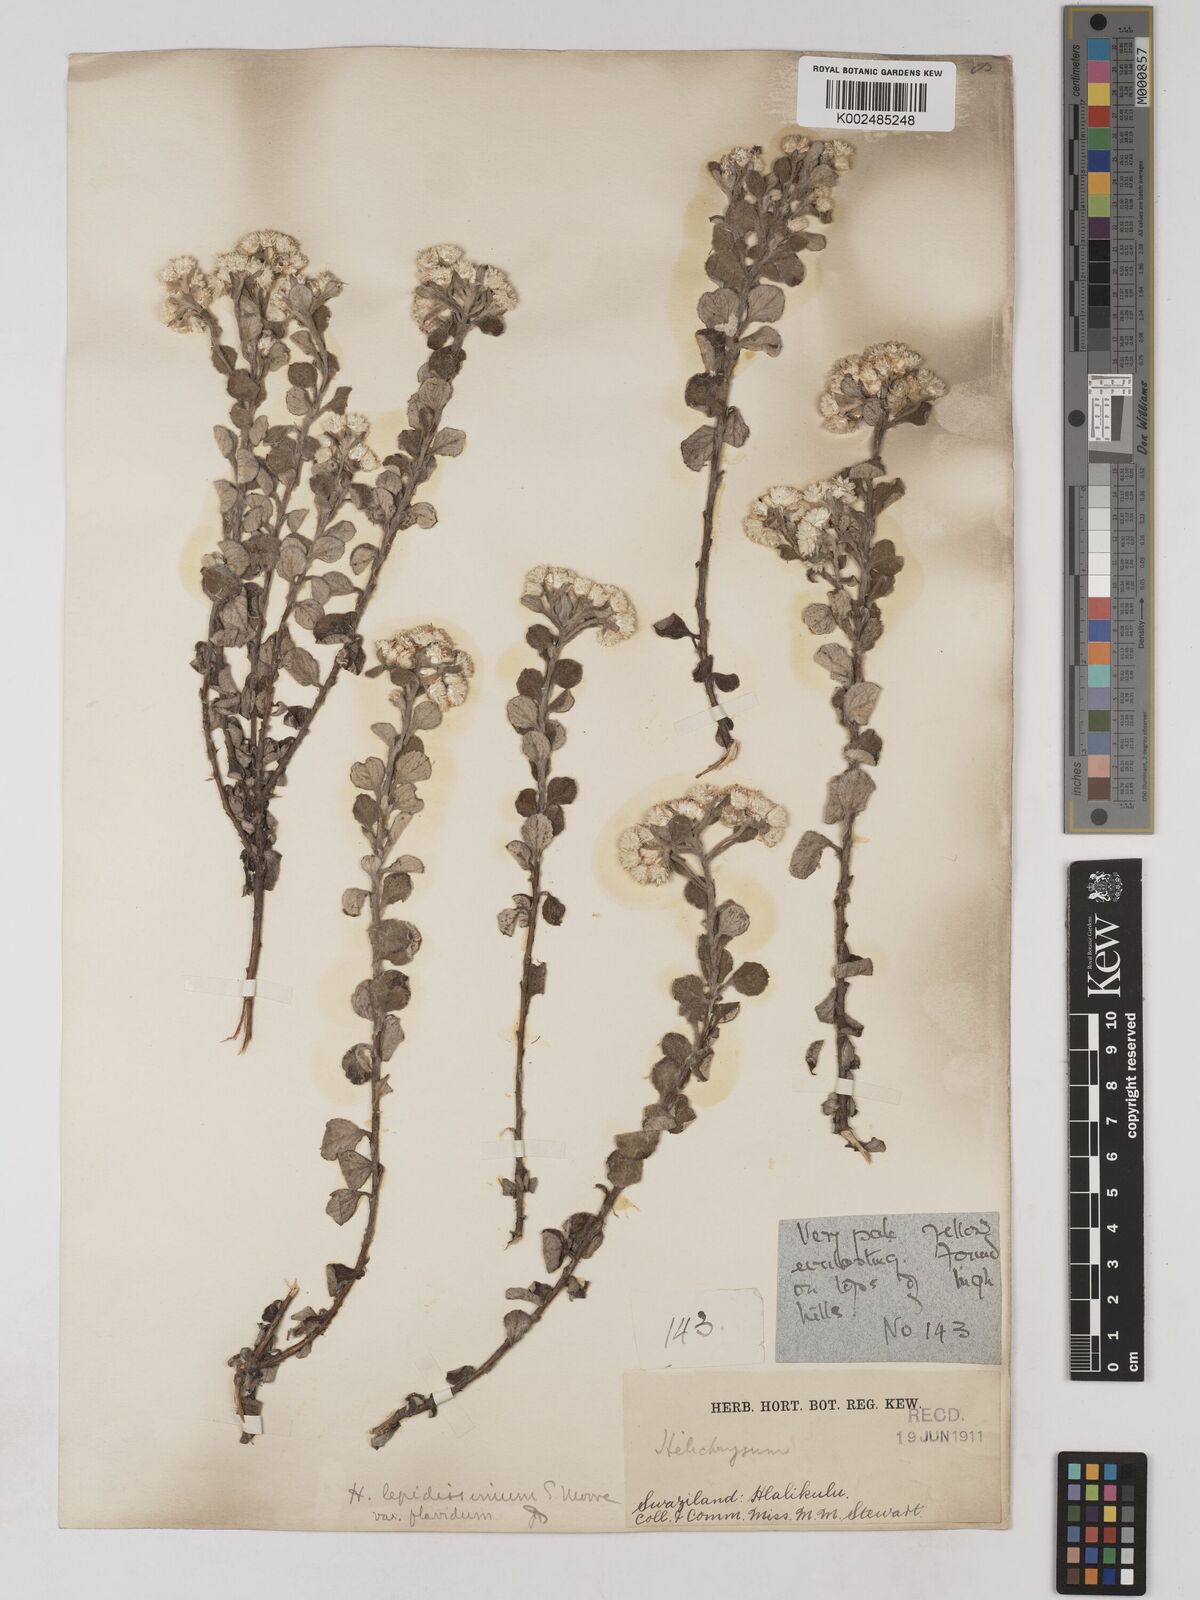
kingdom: Plantae
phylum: Tracheophyta
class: Magnoliopsida
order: Asterales
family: Asteraceae
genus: Helichrysum
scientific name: Helichrysum lepidissimum
